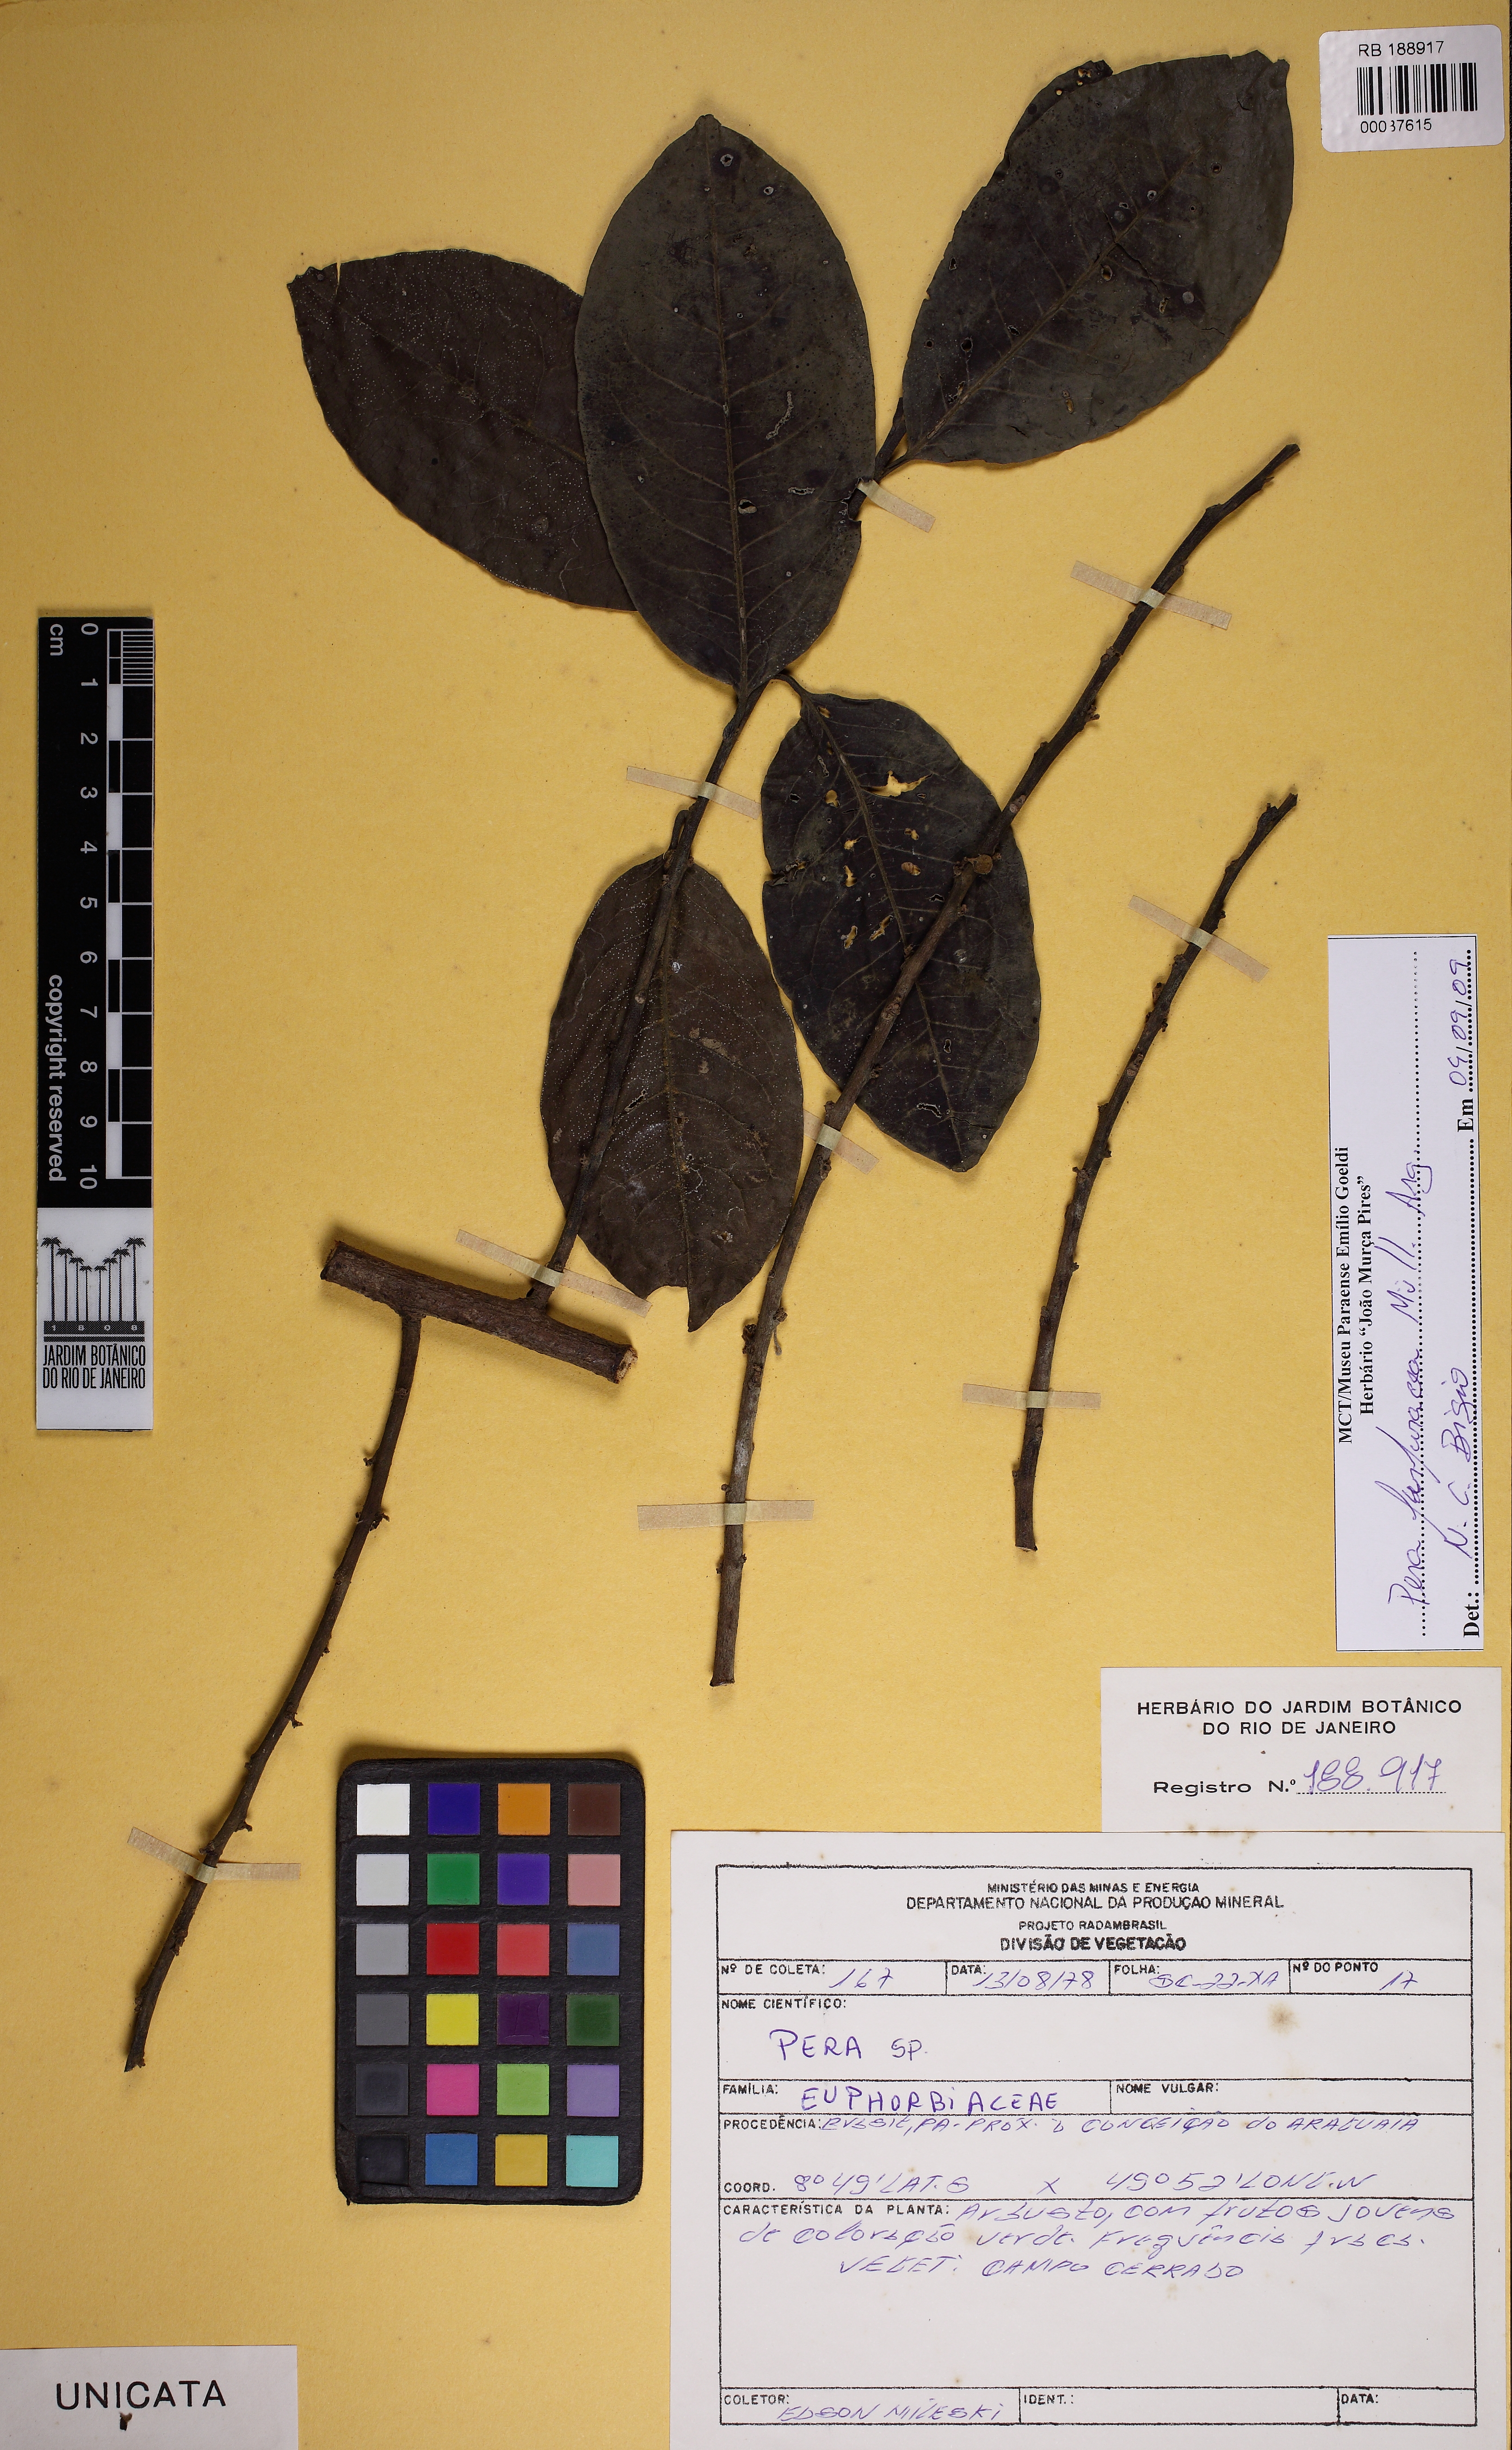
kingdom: Plantae
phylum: Tracheophyta
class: Magnoliopsida
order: Malpighiales
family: Peraceae
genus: Pera
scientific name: Pera anisotricha
